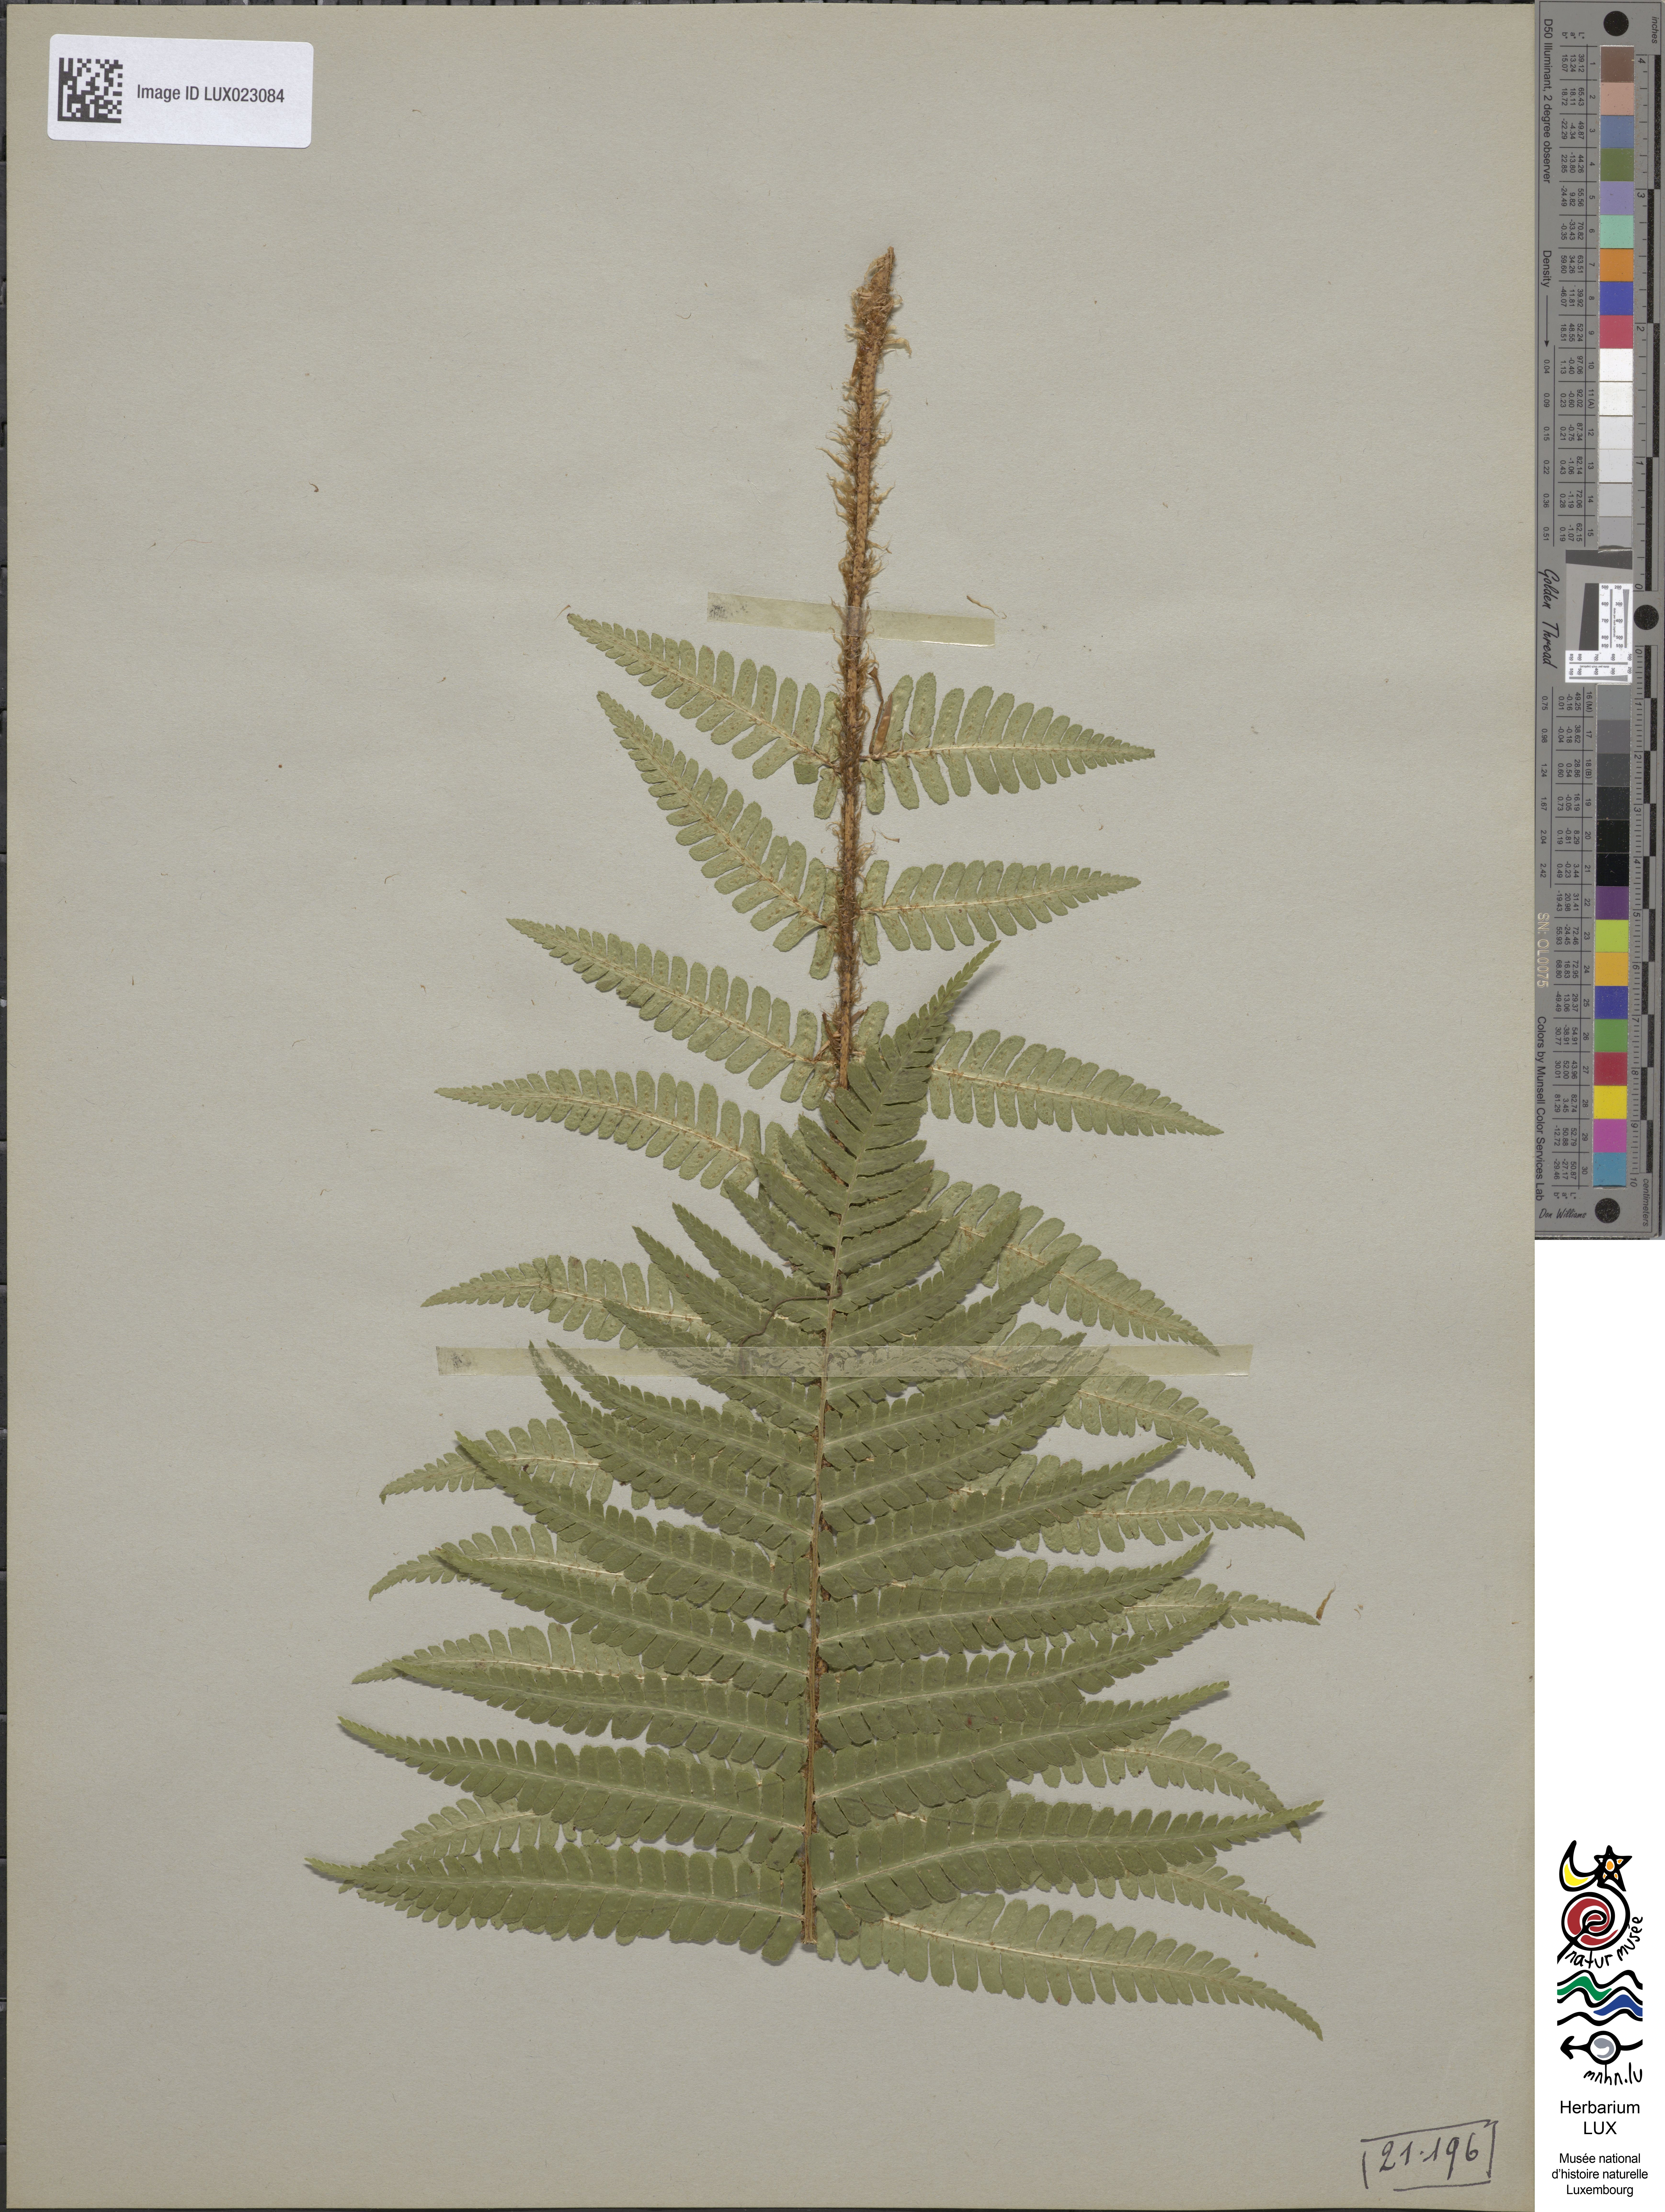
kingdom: Plantae
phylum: Tracheophyta
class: Polypodiopsida
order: Polypodiales
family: Dryopteridaceae
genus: Dryopteris
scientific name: Dryopteris borreri
